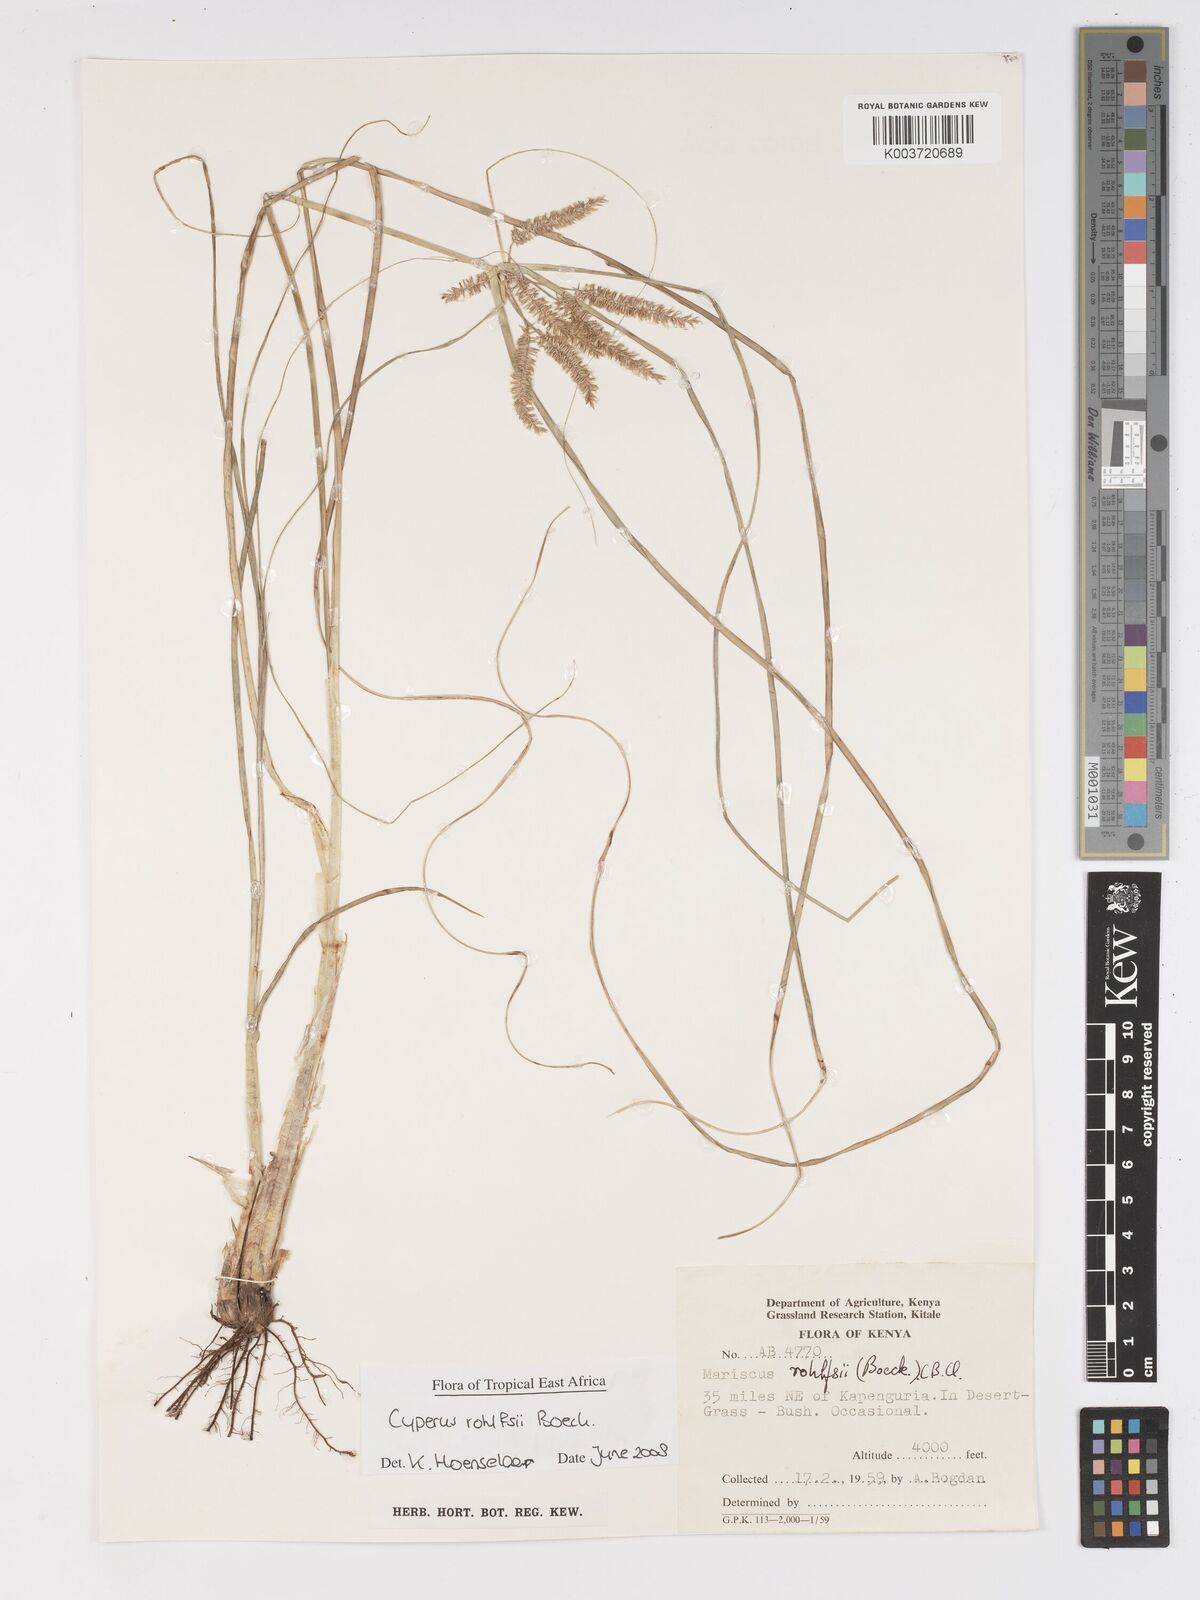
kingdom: Plantae
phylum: Tracheophyta
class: Liliopsida
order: Poales
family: Cyperaceae
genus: Cyperus
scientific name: Cyperus rohlfsii
